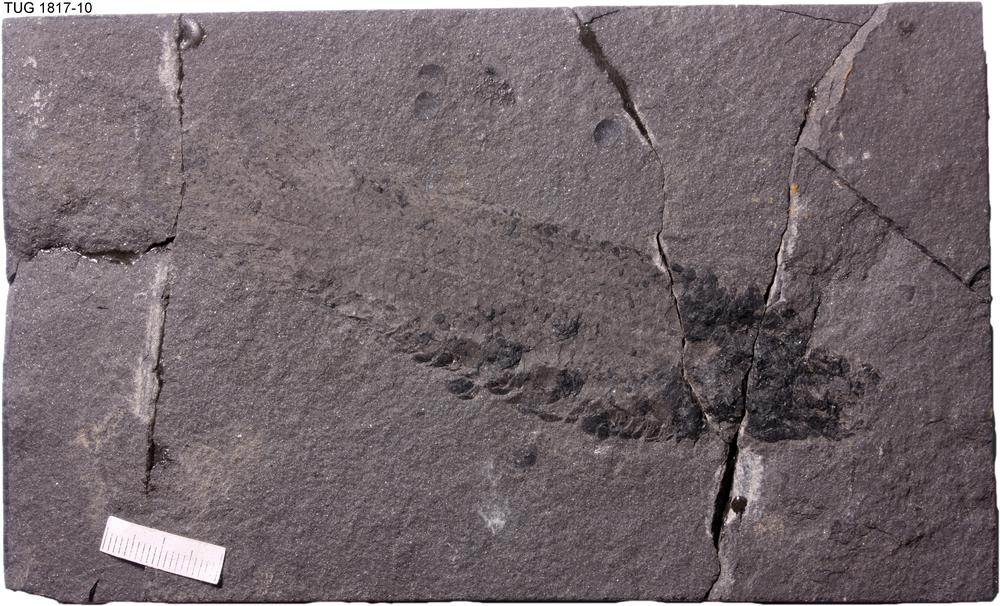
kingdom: Animalia
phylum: Chordata
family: Dipteridae
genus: Dipterus
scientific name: Dipterus valenciennesi
